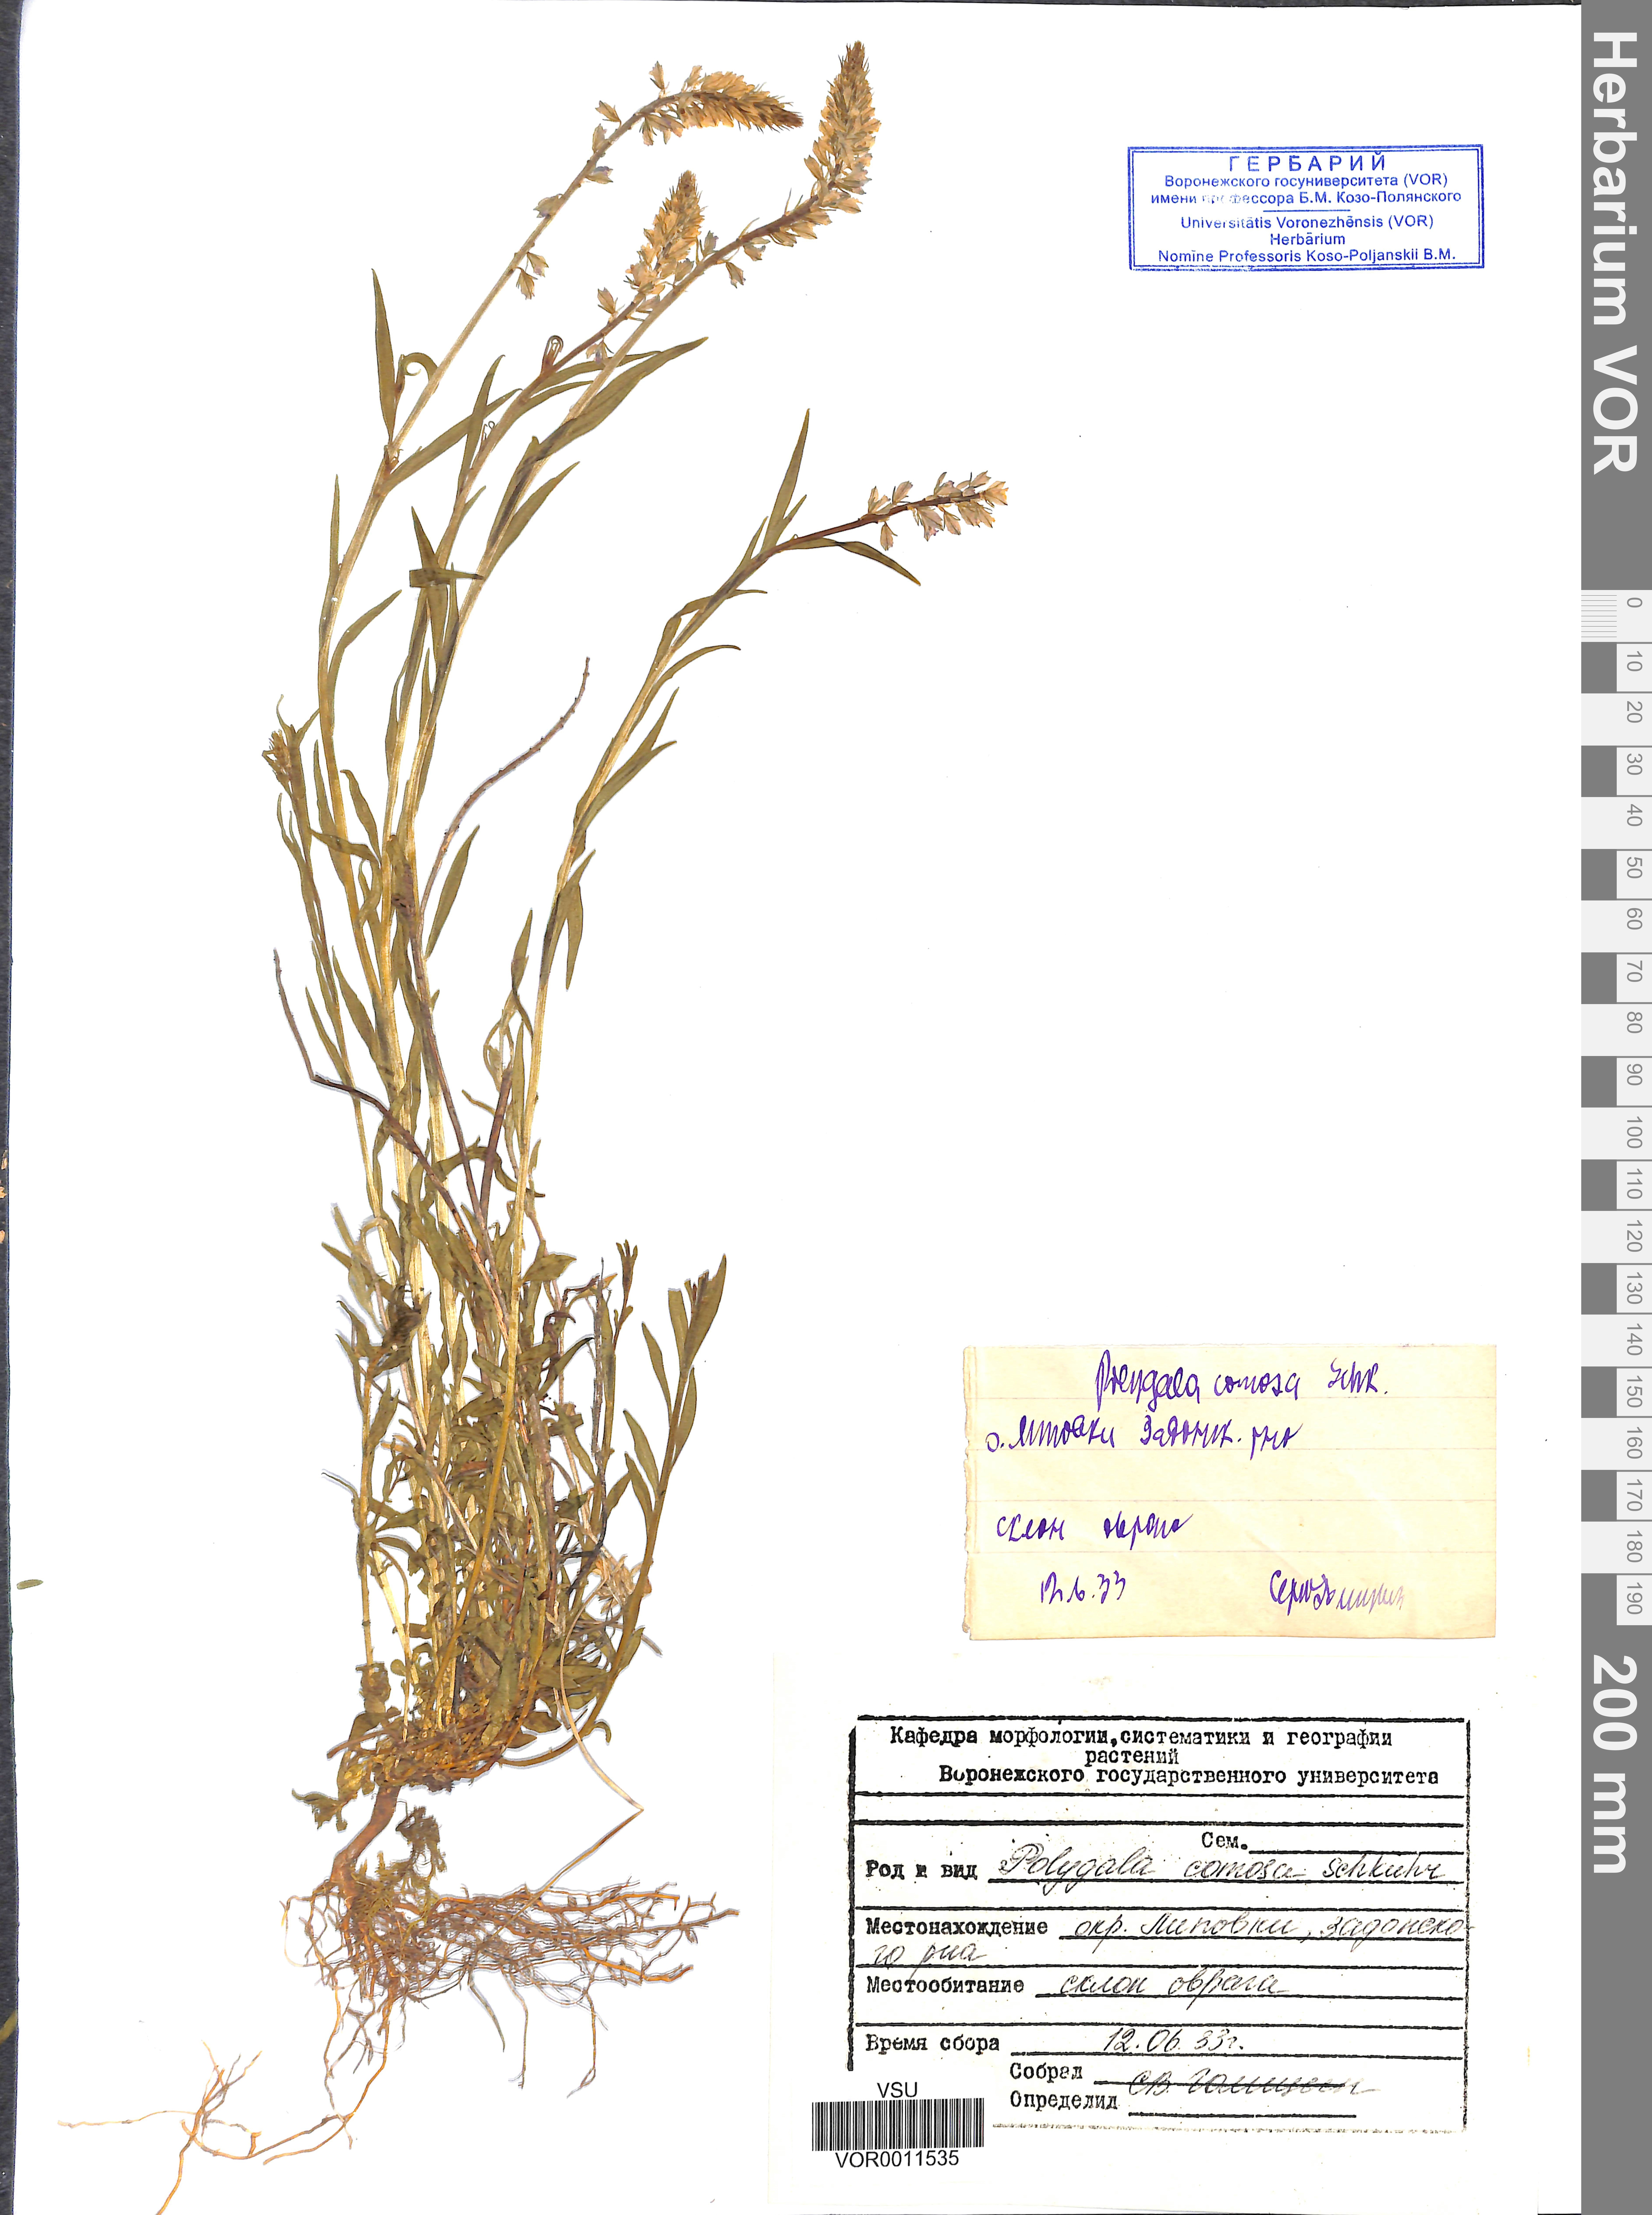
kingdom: Plantae
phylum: Tracheophyta
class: Magnoliopsida
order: Fabales
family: Polygalaceae
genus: Polygala
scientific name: Polygala comosa
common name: Tufted milkwort
